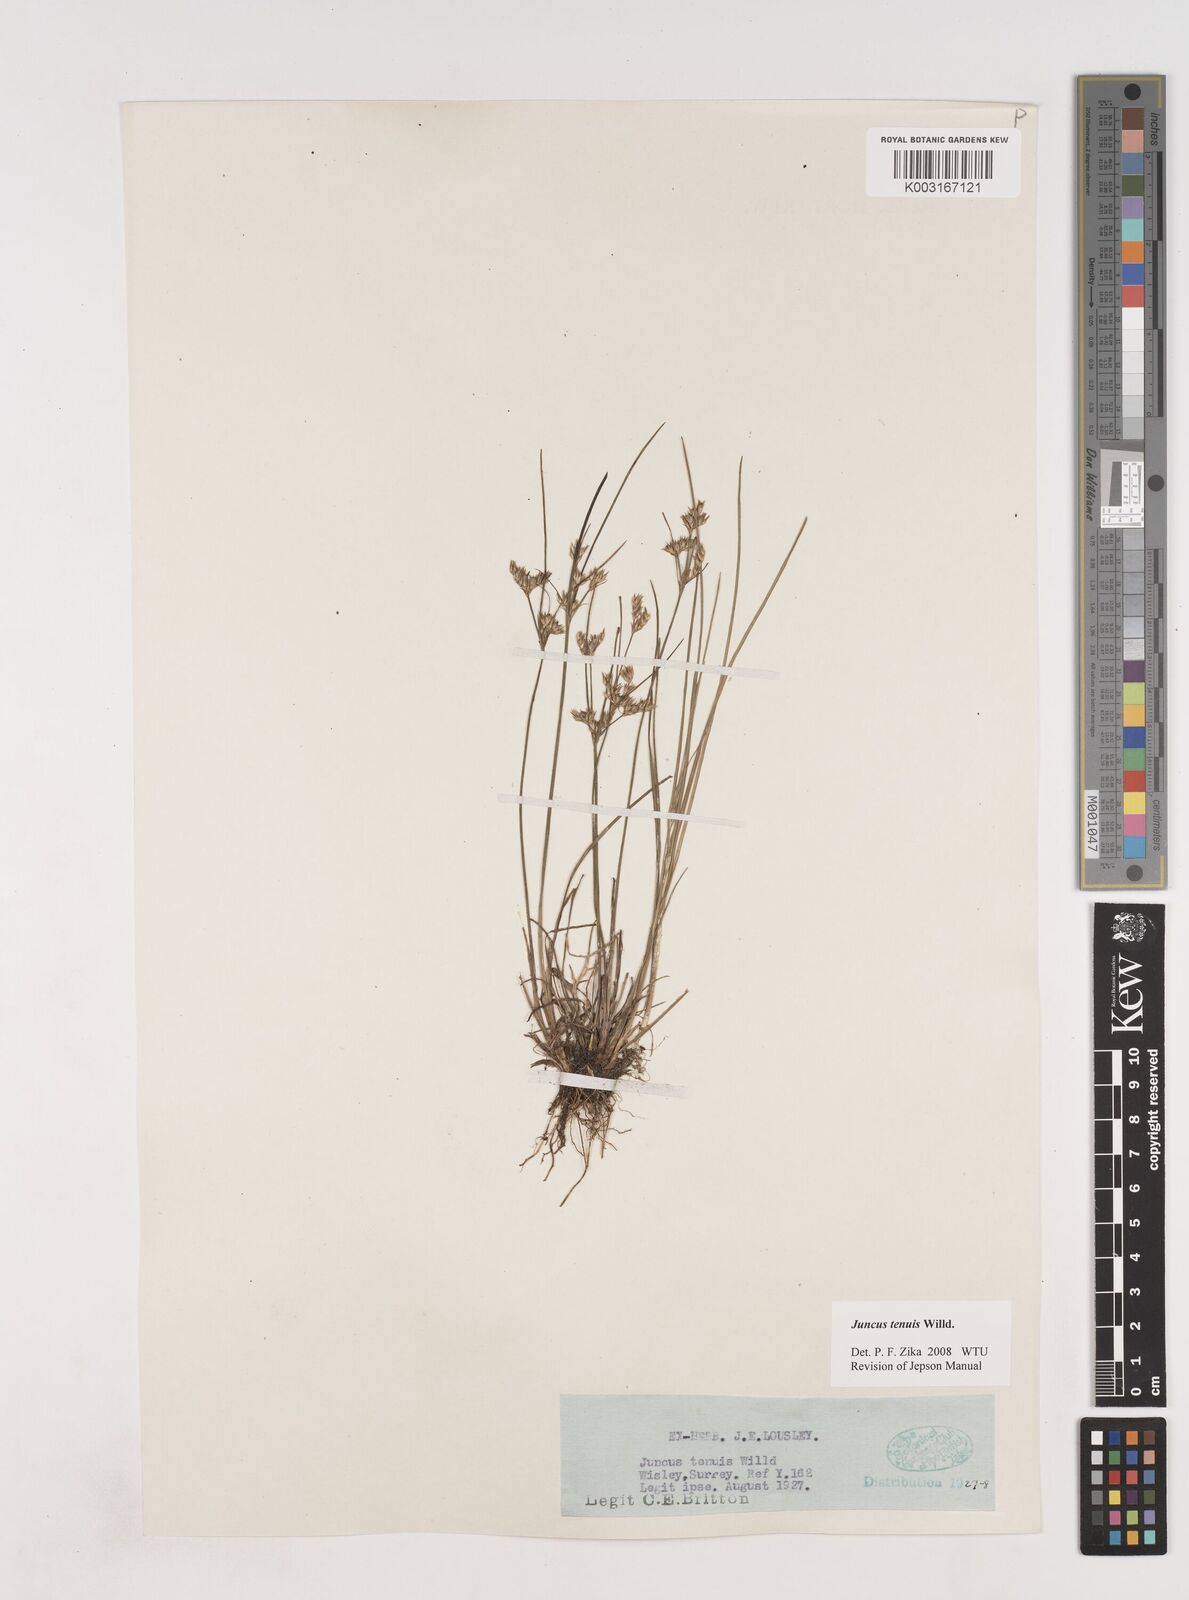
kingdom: Plantae
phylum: Tracheophyta
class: Liliopsida
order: Poales
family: Juncaceae
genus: Juncus
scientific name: Juncus tenuis
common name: Slender rush
